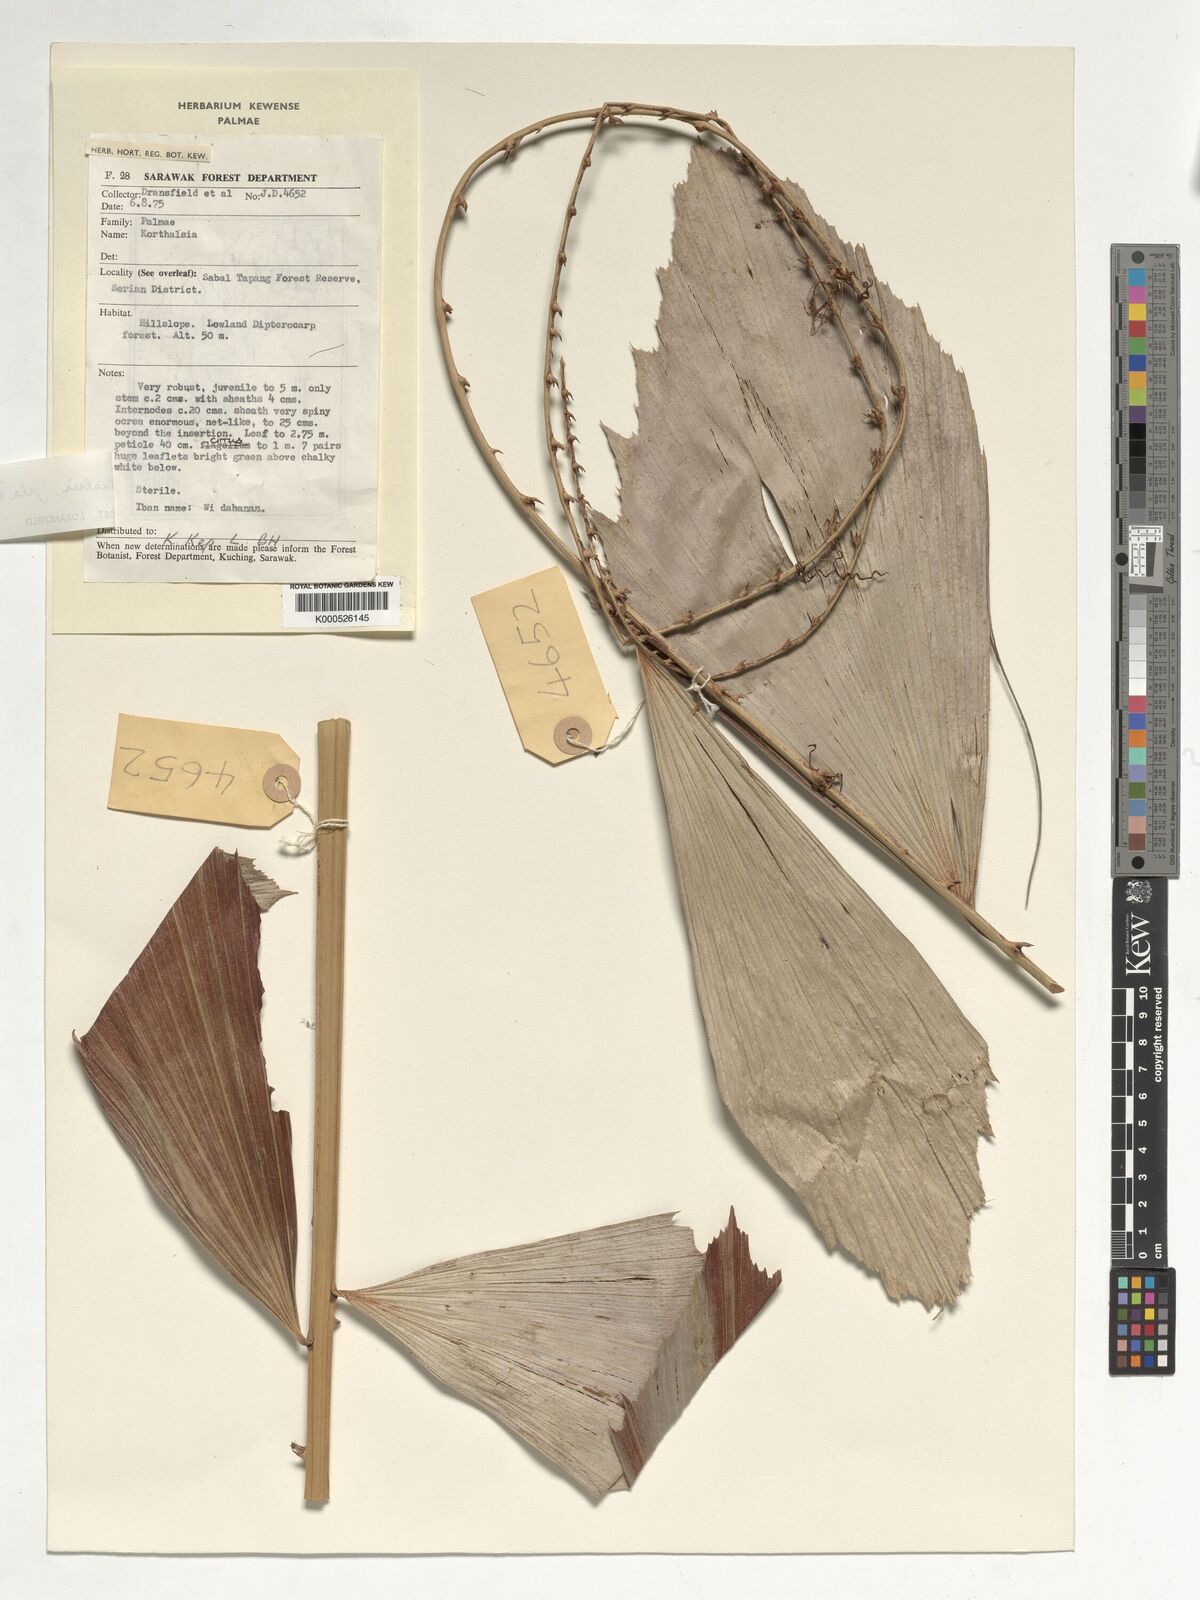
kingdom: Plantae
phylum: Tracheophyta
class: Liliopsida
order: Arecales
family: Arecaceae
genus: Korthalsia
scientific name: Korthalsia jala
